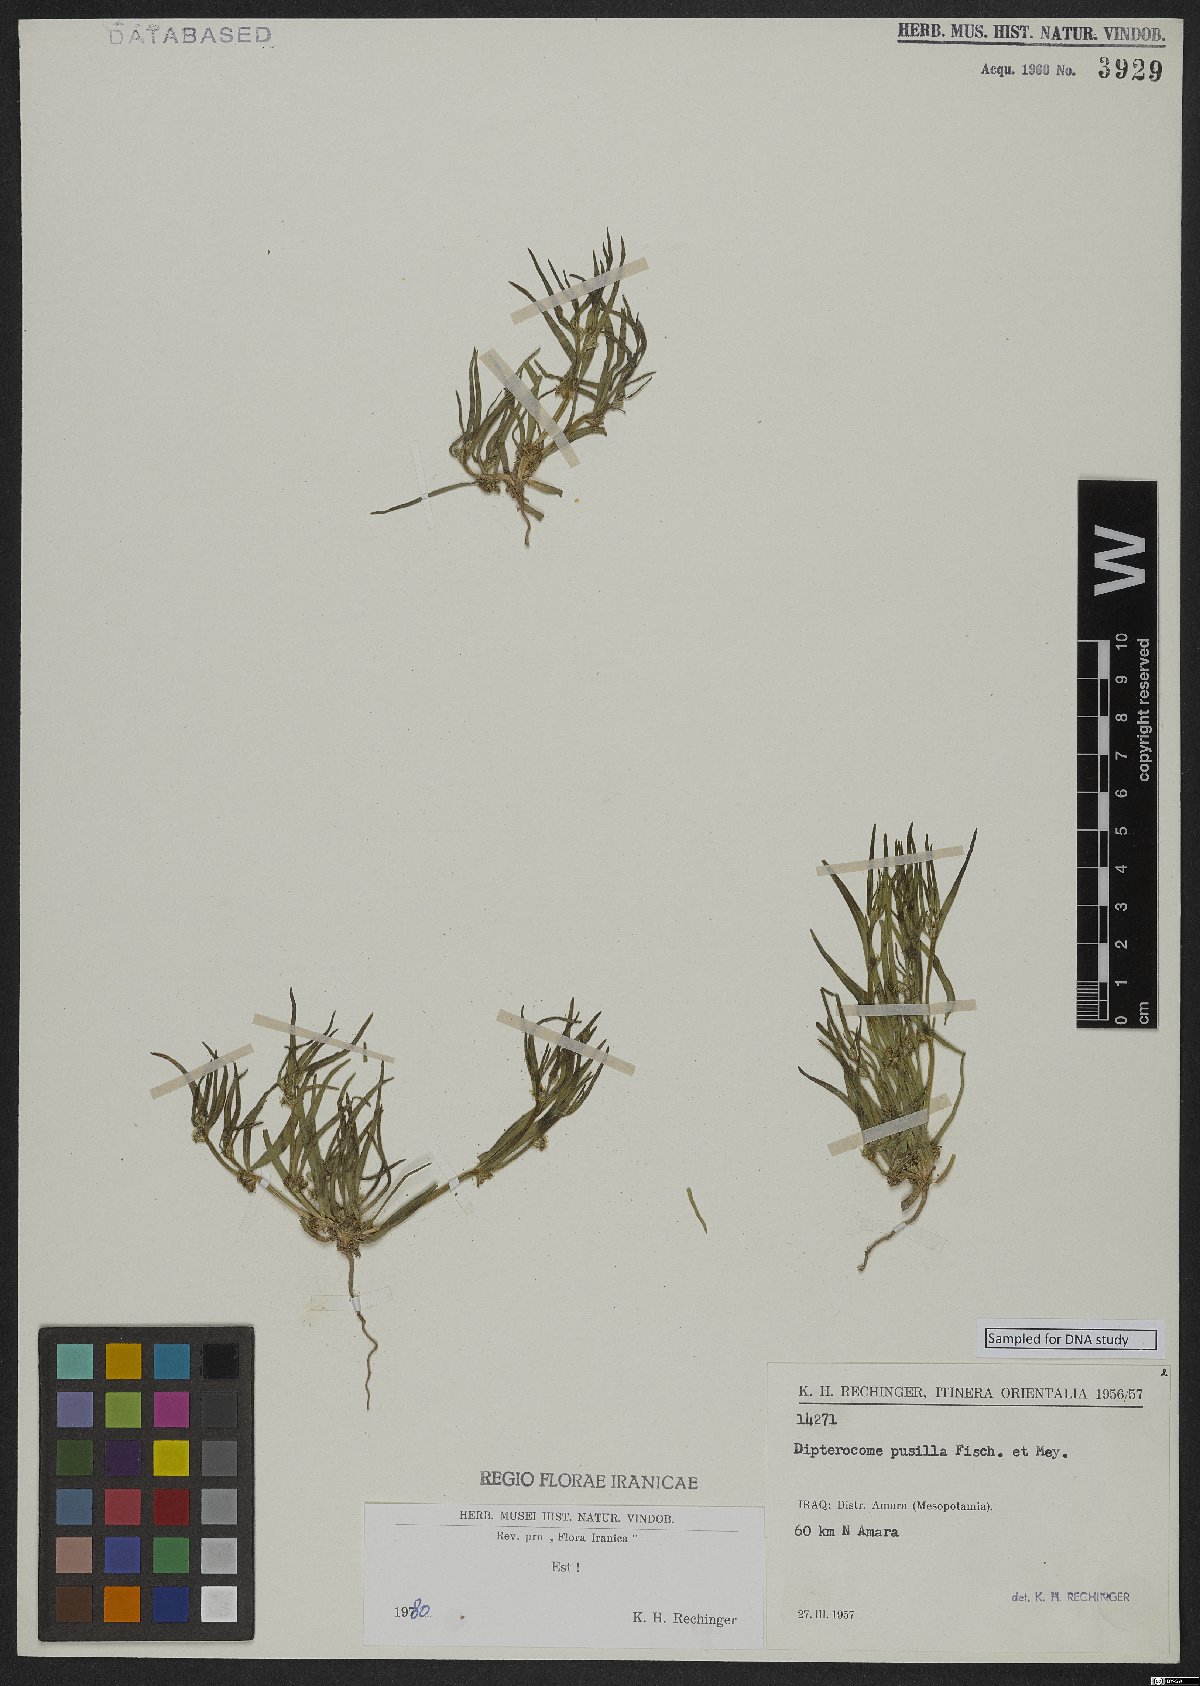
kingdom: Plantae
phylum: Tracheophyta
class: Magnoliopsida
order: Asterales
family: Asteraceae
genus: Dipterocome
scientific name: Dipterocome pusilla
